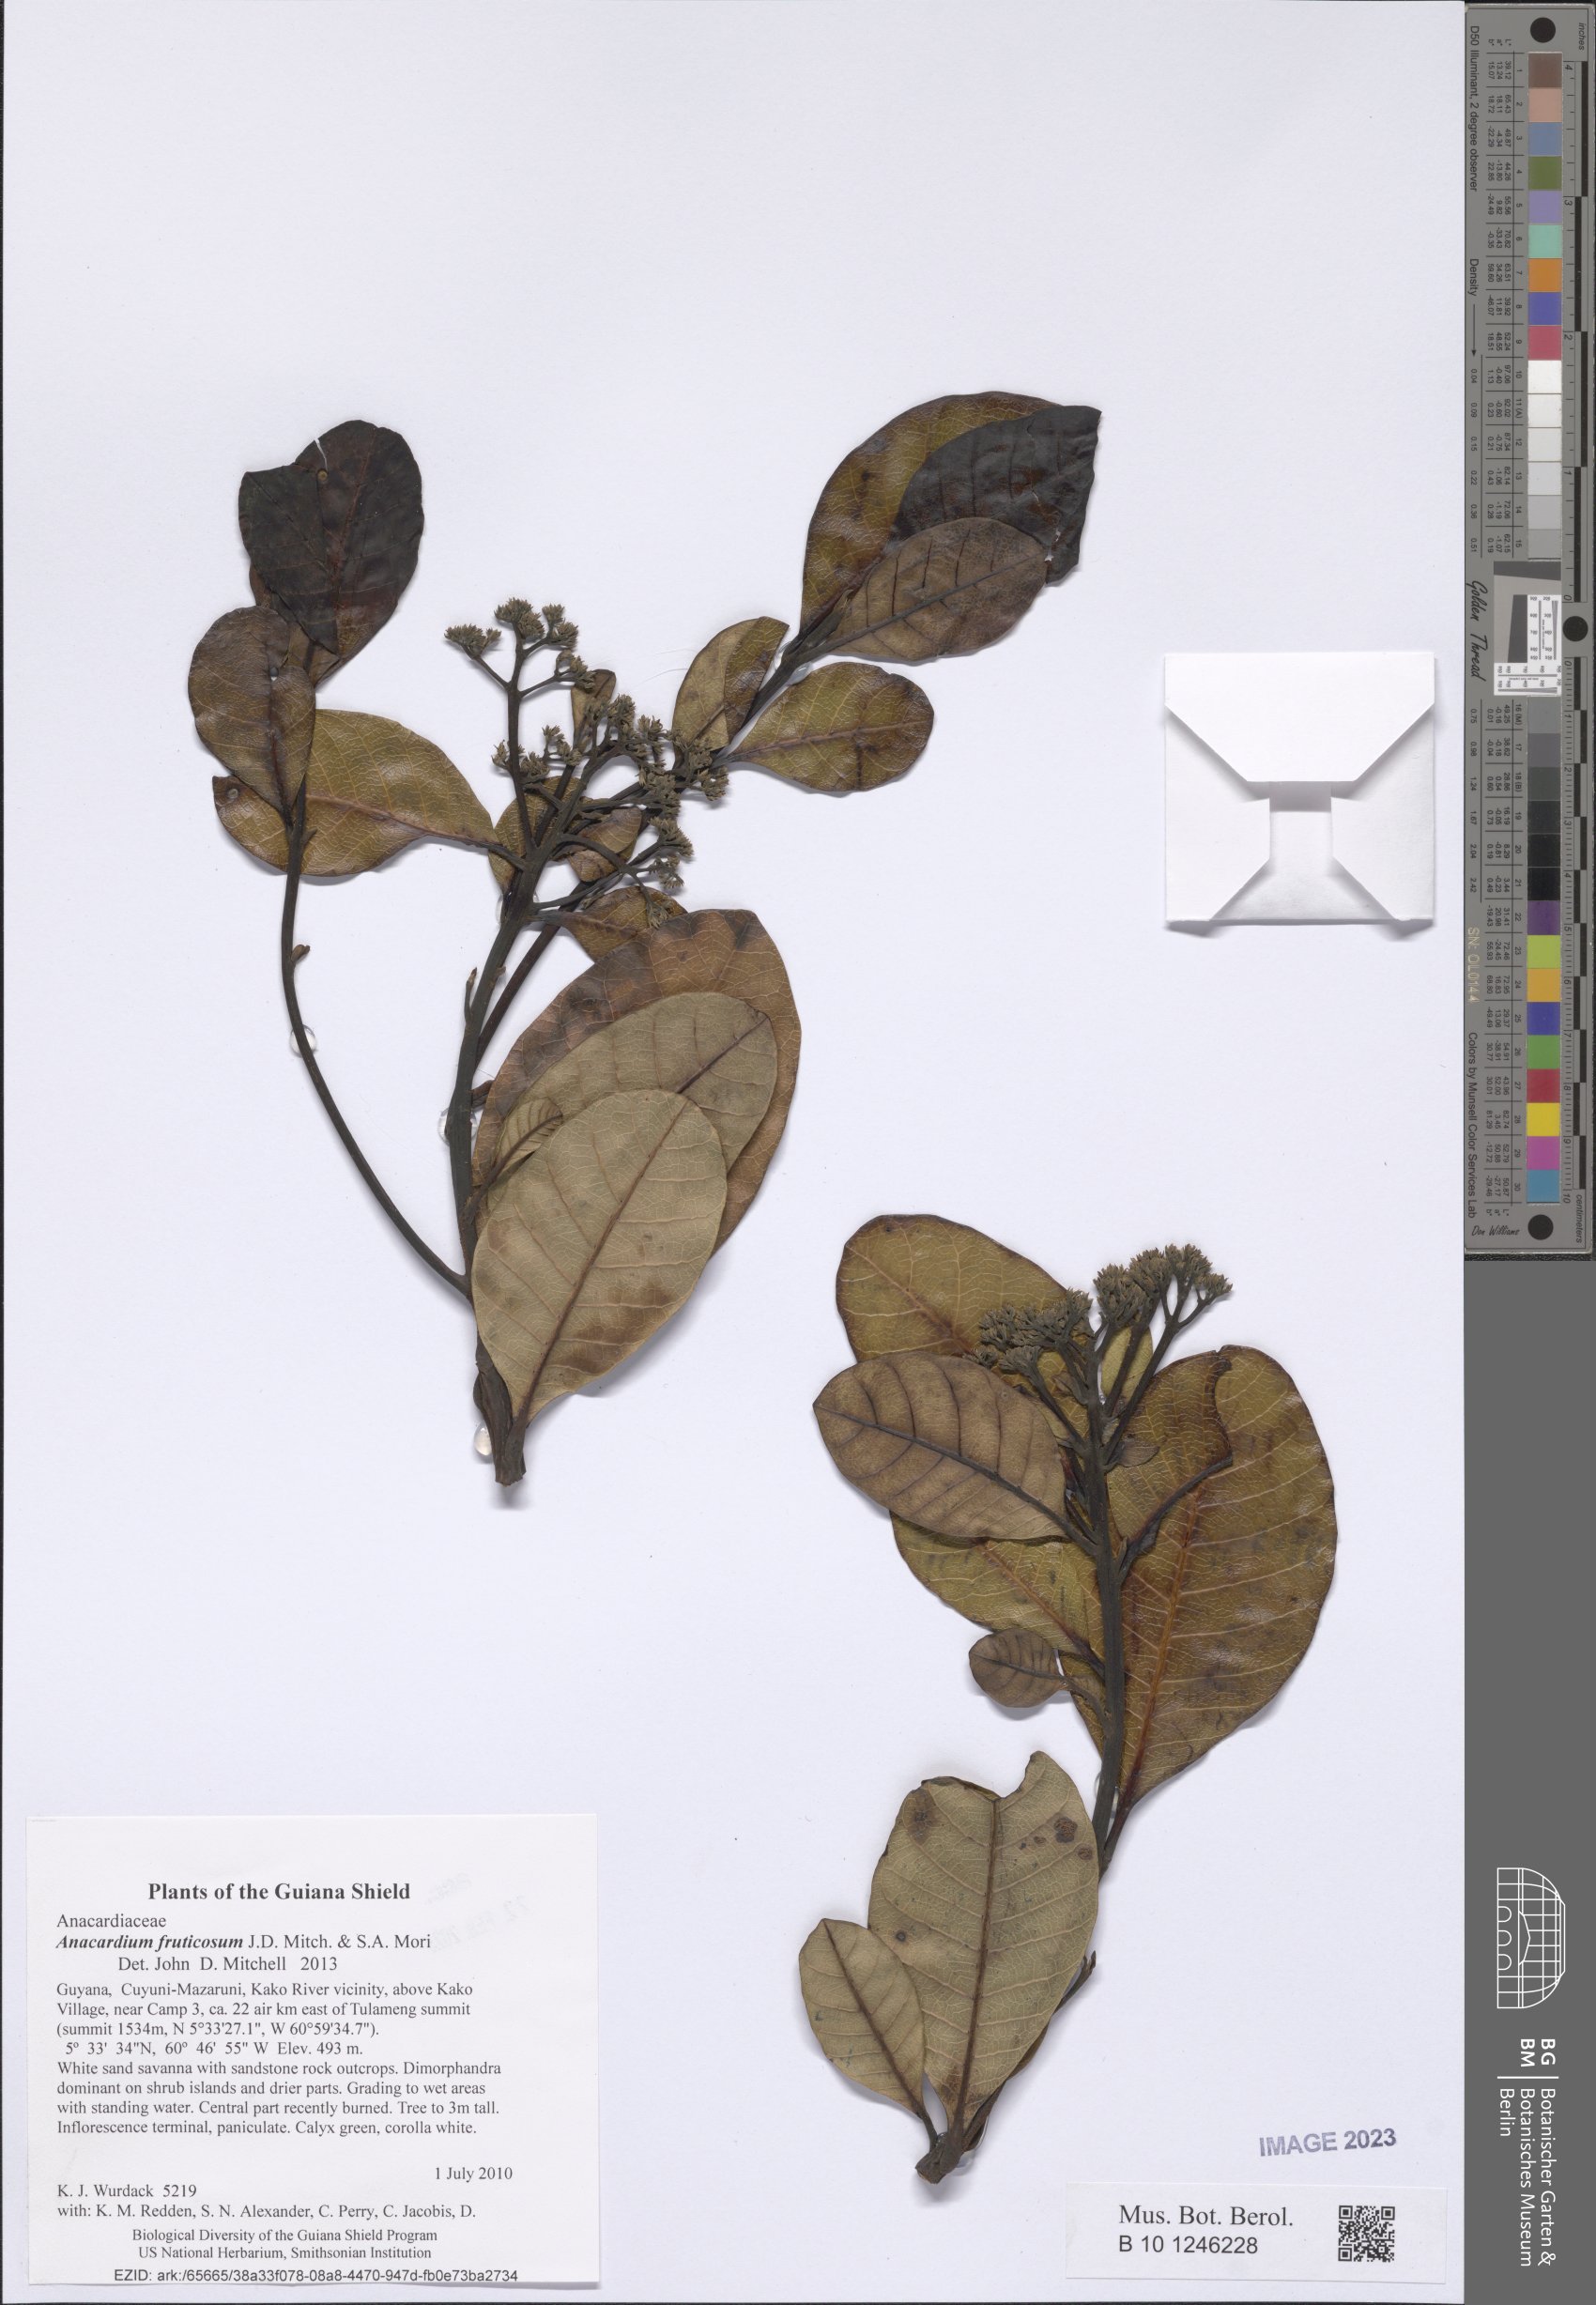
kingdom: Plantae
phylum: Tracheophyta
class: Magnoliopsida
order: Sapindales
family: Anacardiaceae
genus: Anacardium
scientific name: Anacardium fruticosum
